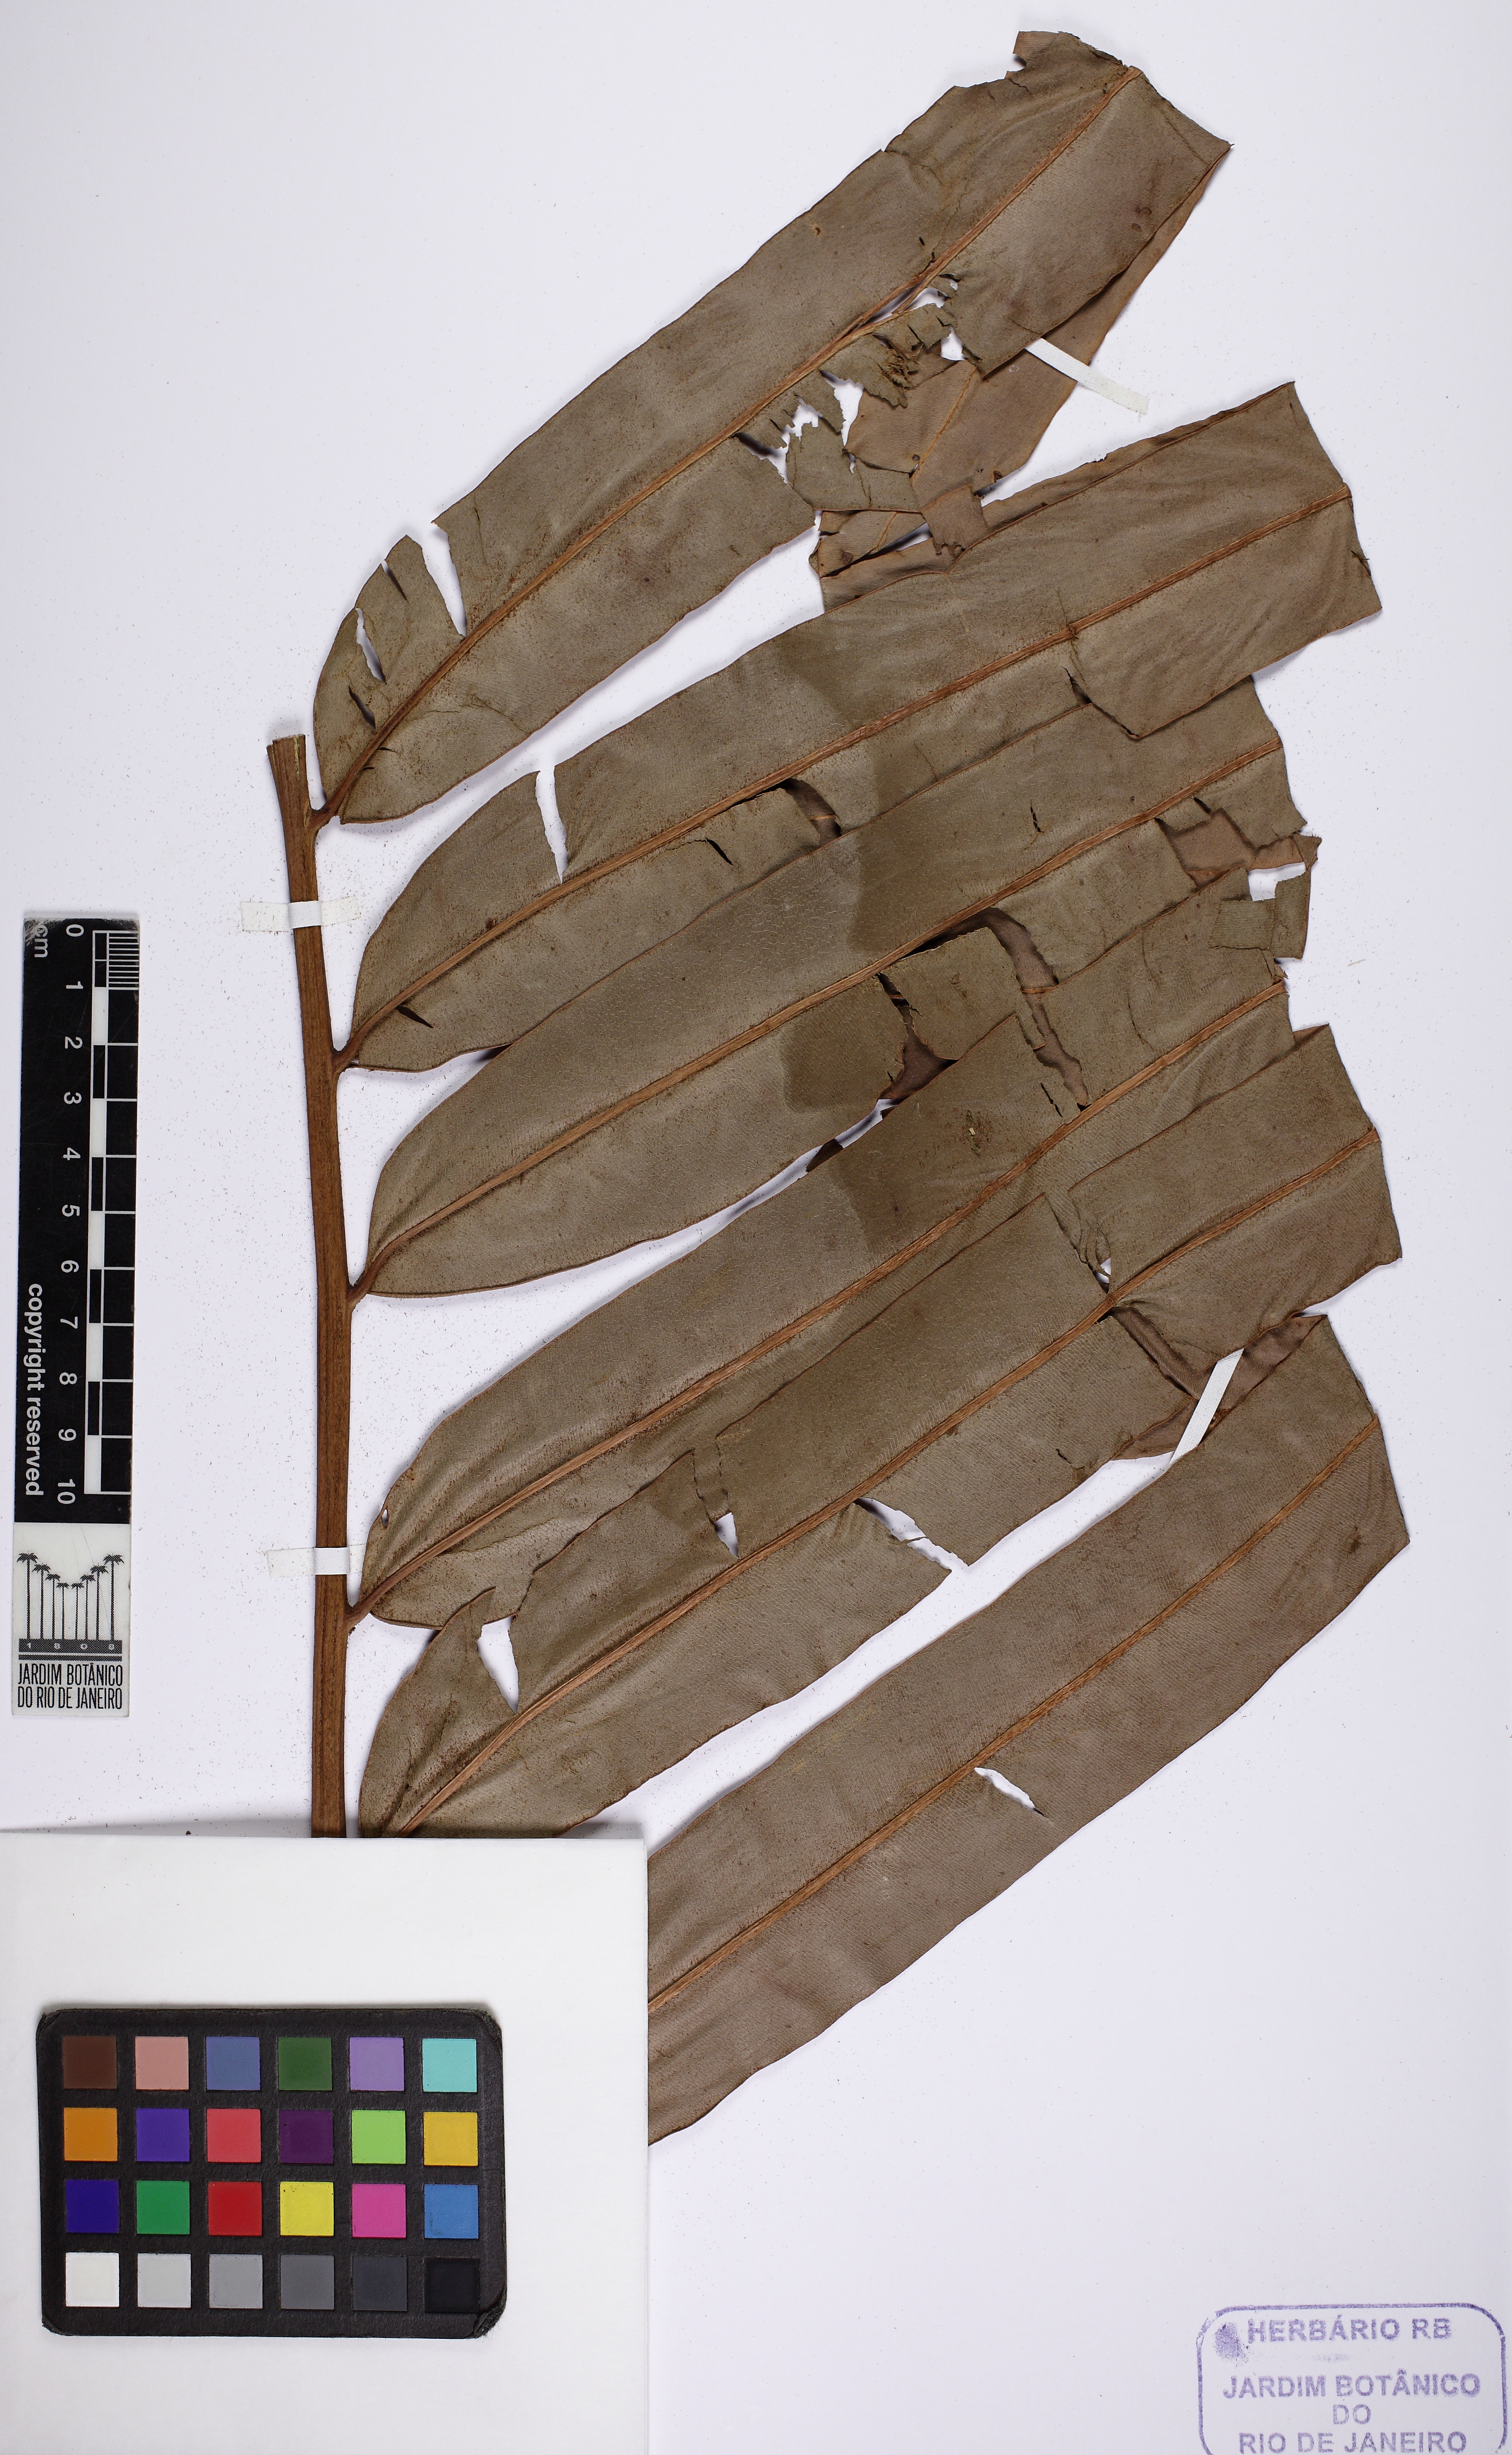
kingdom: Plantae
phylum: Tracheophyta
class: Polypodiopsida
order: Polypodiales
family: Pteridaceae
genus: Acrostichum
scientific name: Acrostichum danaeifolium
